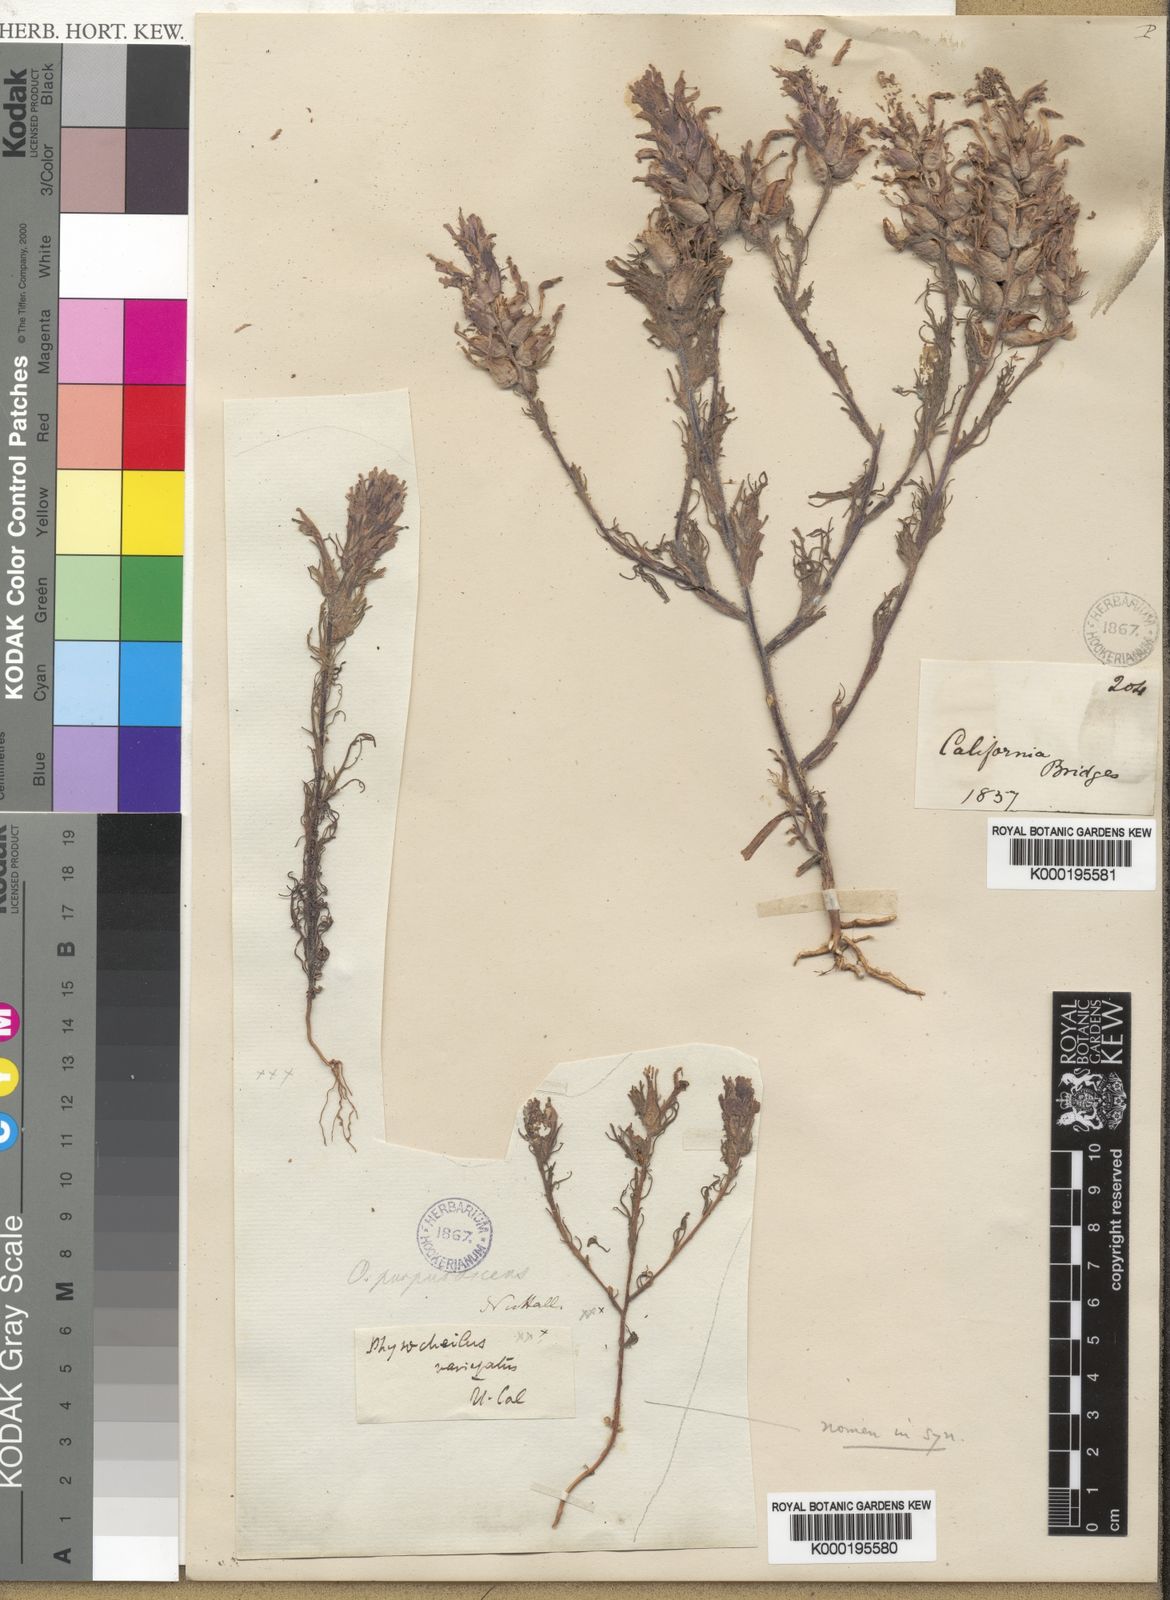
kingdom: Plantae
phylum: Tracheophyta
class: Magnoliopsida
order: Lamiales
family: Orobanchaceae
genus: Castilleja
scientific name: Castilleja exserta
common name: Purple owl-clover
